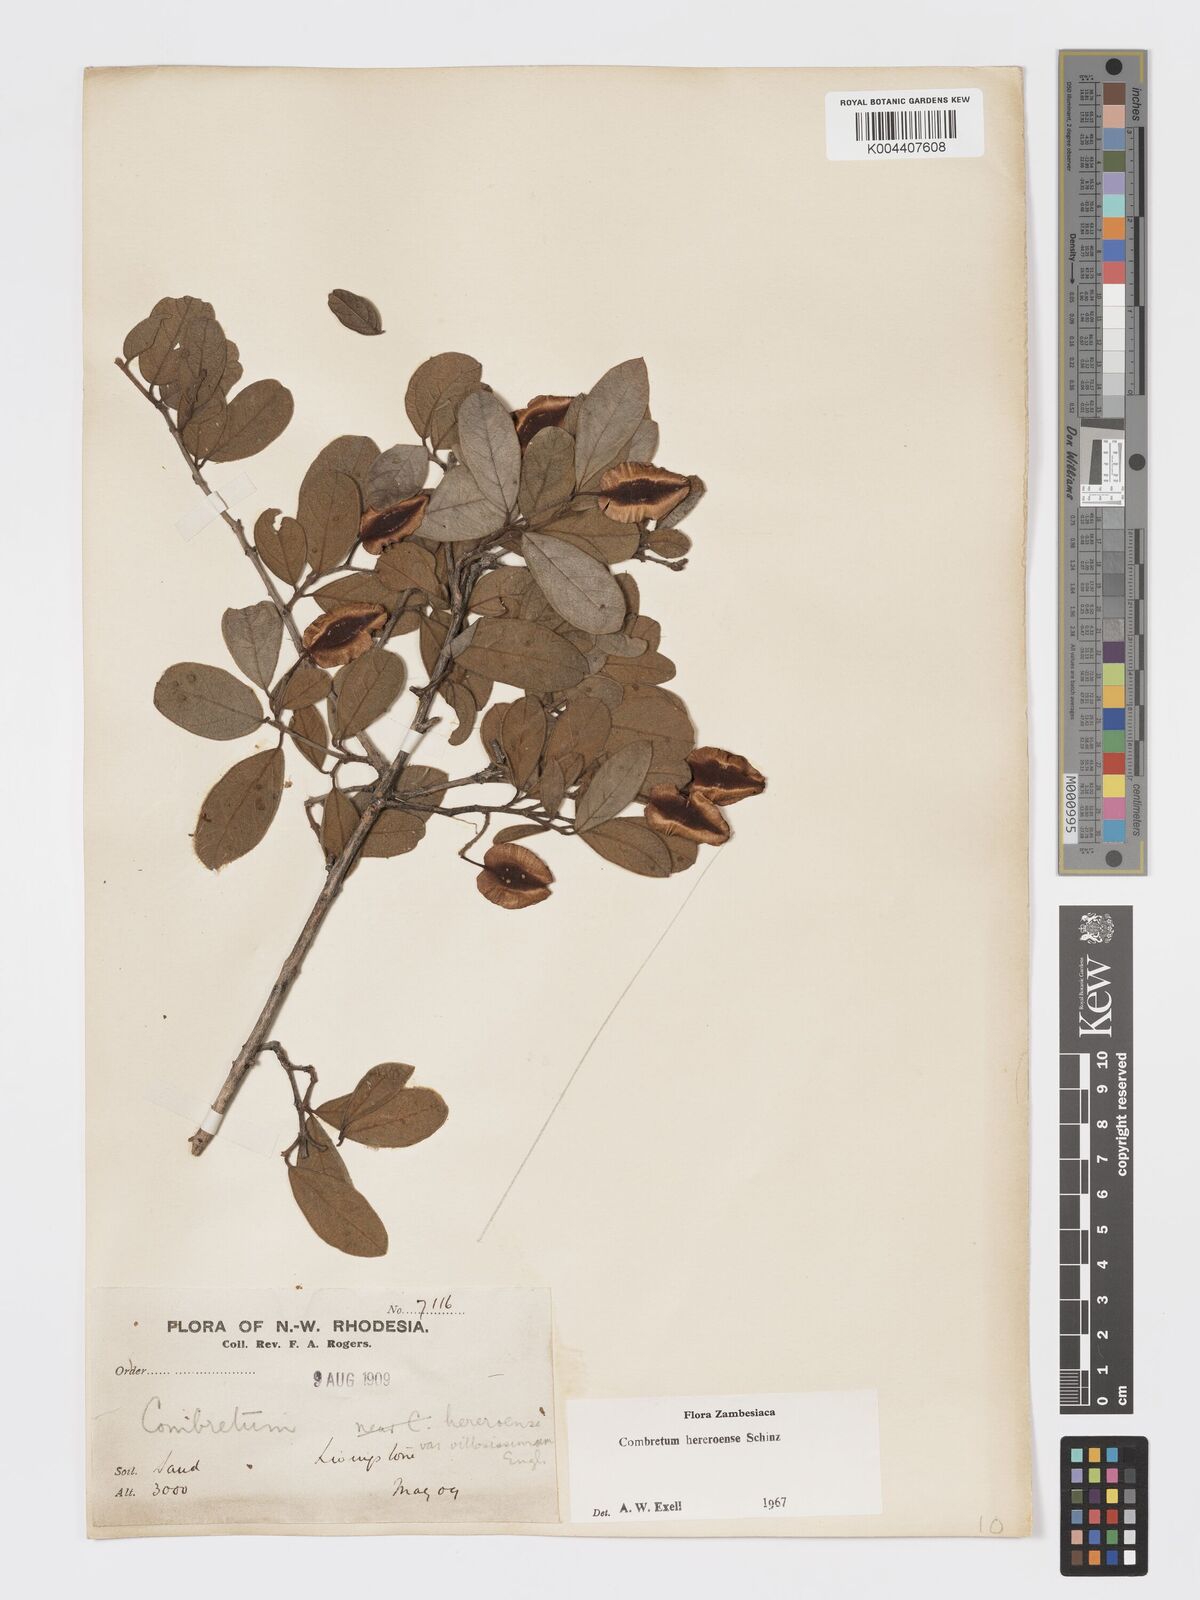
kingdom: Plantae
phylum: Tracheophyta
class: Magnoliopsida
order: Myrtales
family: Combretaceae
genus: Combretum
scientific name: Combretum hereroense
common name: Russet bushwillow
